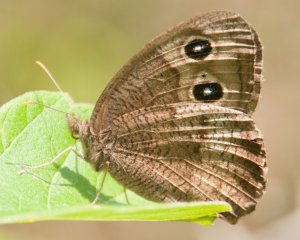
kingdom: Animalia
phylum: Arthropoda
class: Insecta
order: Lepidoptera
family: Nymphalidae
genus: Cercyonis
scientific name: Cercyonis pegala
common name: Common Wood-Nymph
